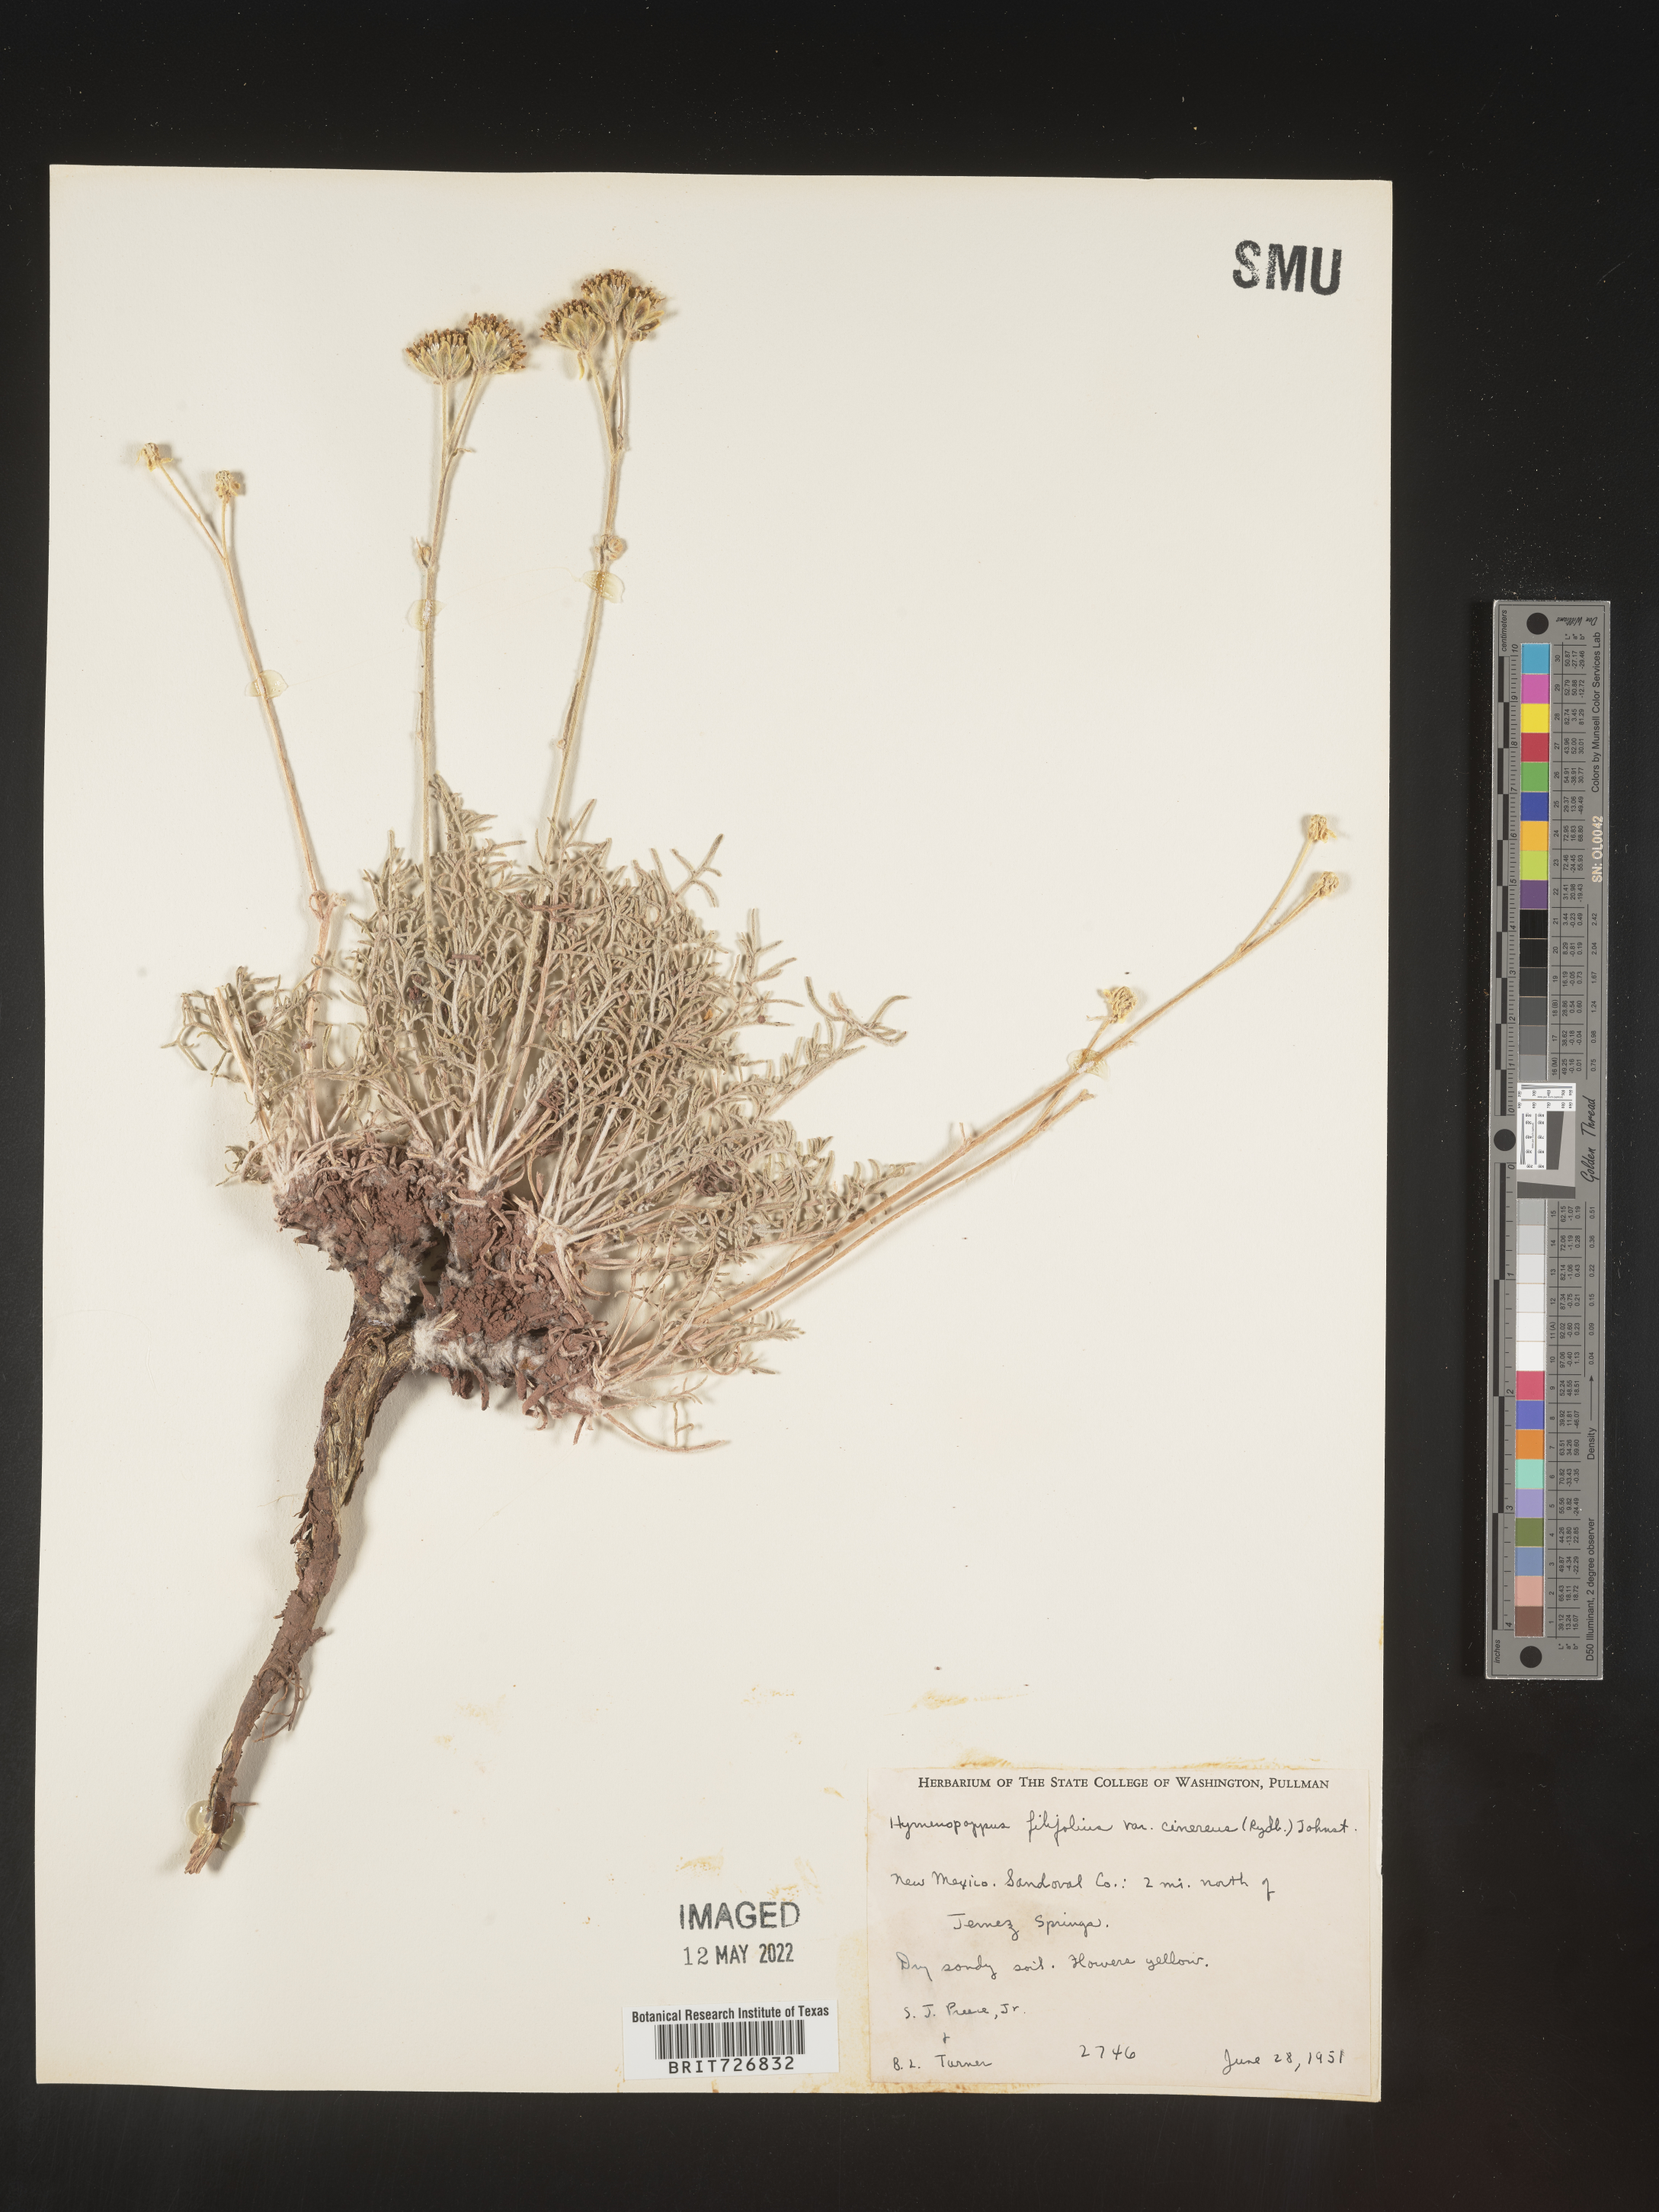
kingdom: Plantae
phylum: Tracheophyta
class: Magnoliopsida
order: Asterales
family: Asteraceae
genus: Hymenopappus
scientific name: Hymenopappus filifolius
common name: Columbia cutleaf
